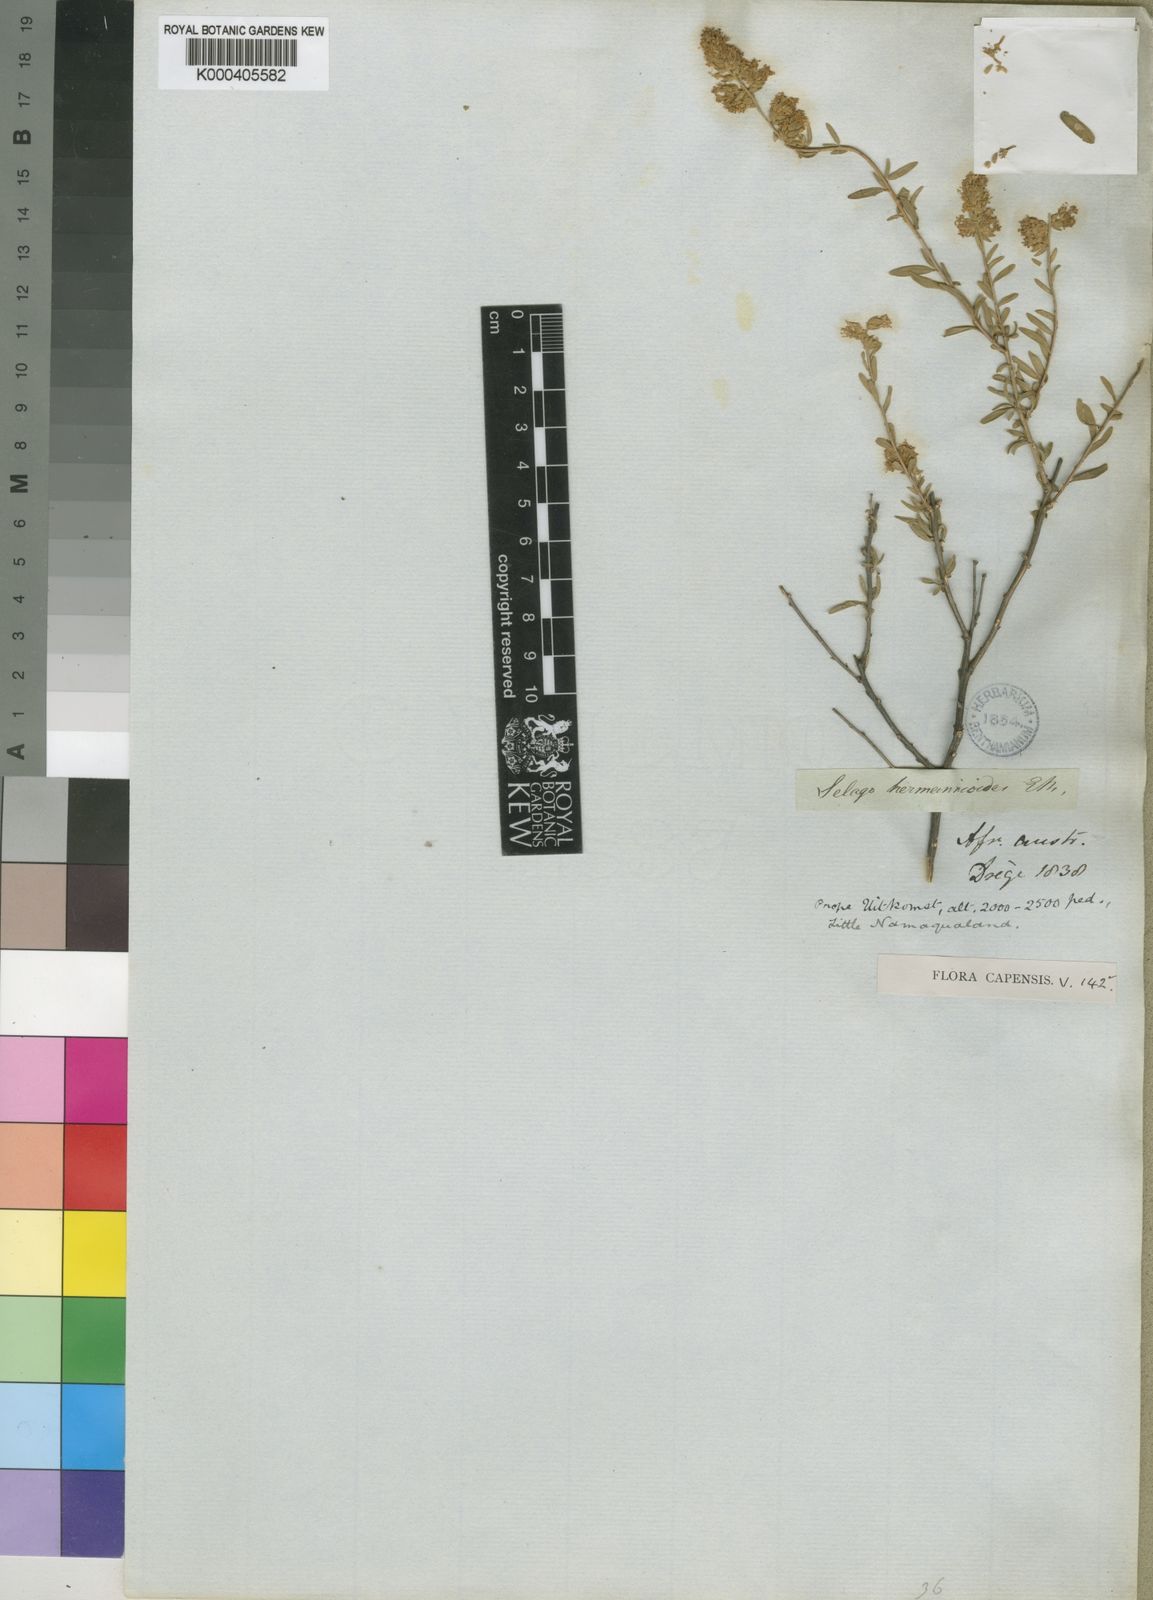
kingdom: Plantae
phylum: Tracheophyta
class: Magnoliopsida
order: Lamiales
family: Scrophulariaceae
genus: Selago
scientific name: Selago hermannioides
